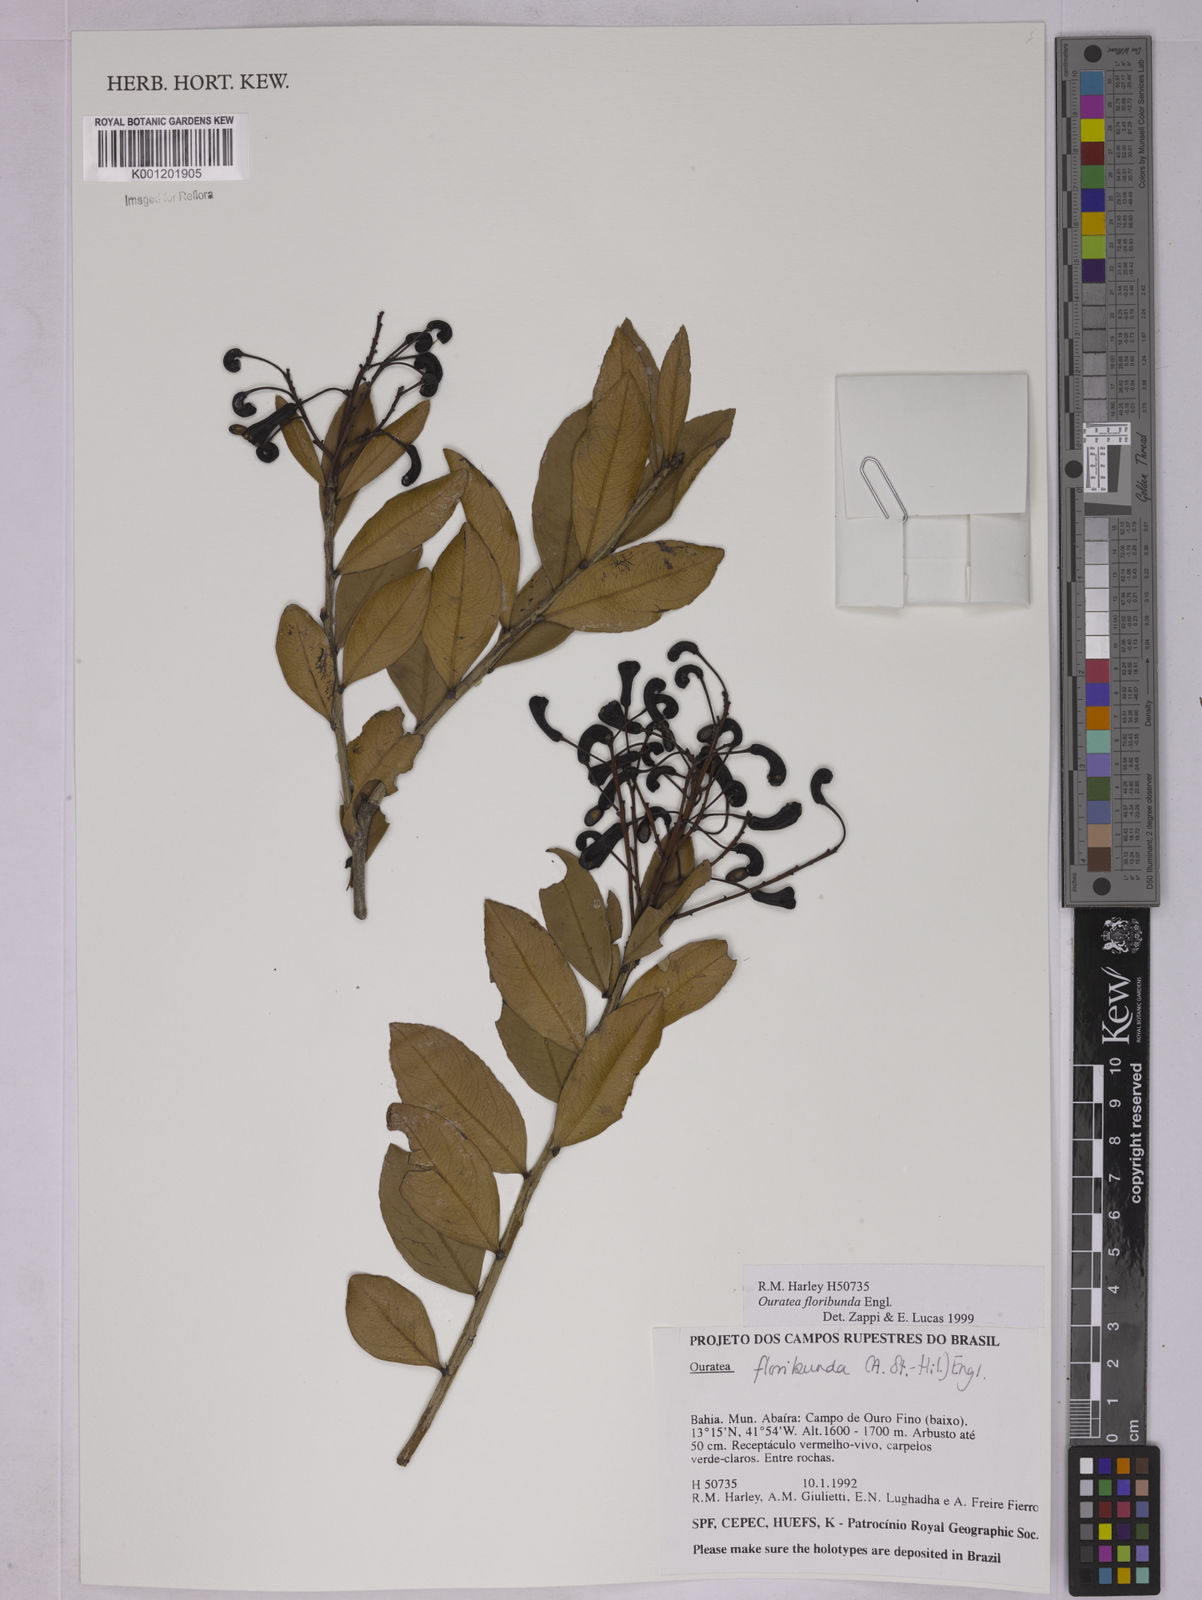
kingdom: Plantae
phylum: Tracheophyta
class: Magnoliopsida
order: Malpighiales
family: Ochnaceae
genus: Ouratea
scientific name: Ouratea floribunda
